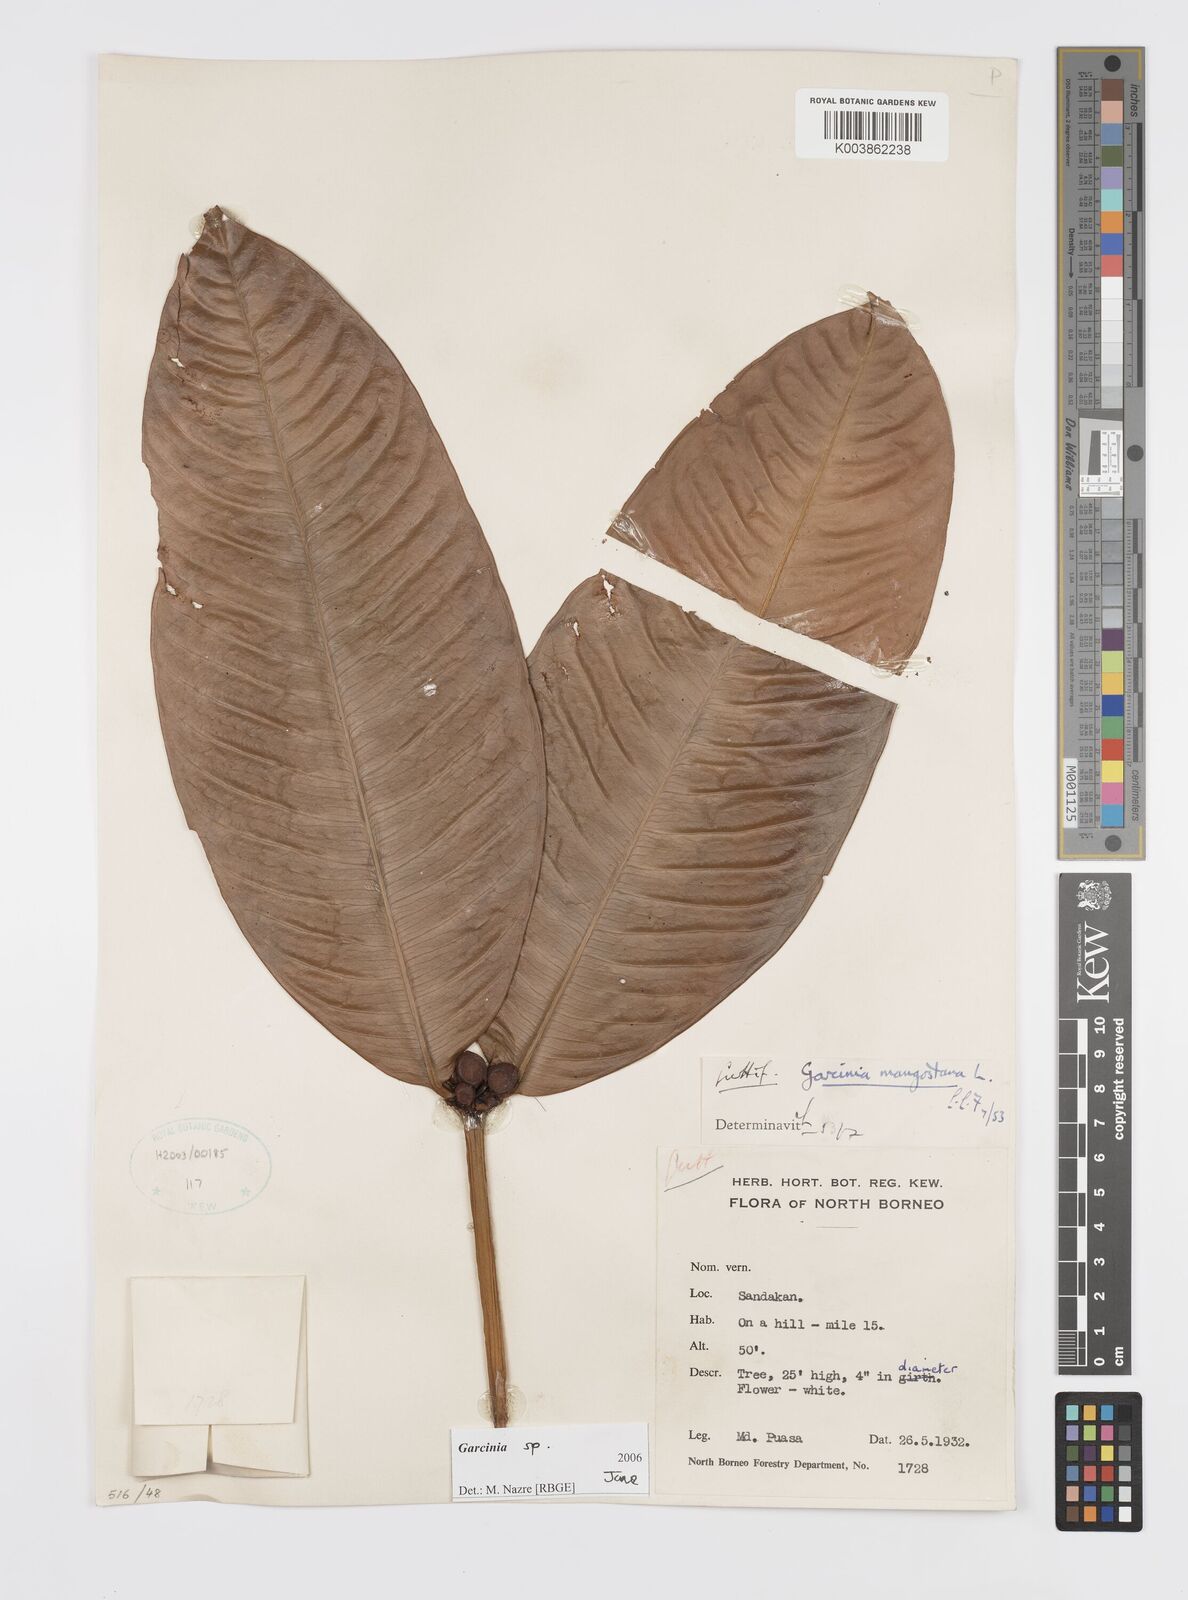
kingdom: Plantae
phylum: Tracheophyta
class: Magnoliopsida
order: Malpighiales
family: Clusiaceae
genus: Garcinia
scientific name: Garcinia
